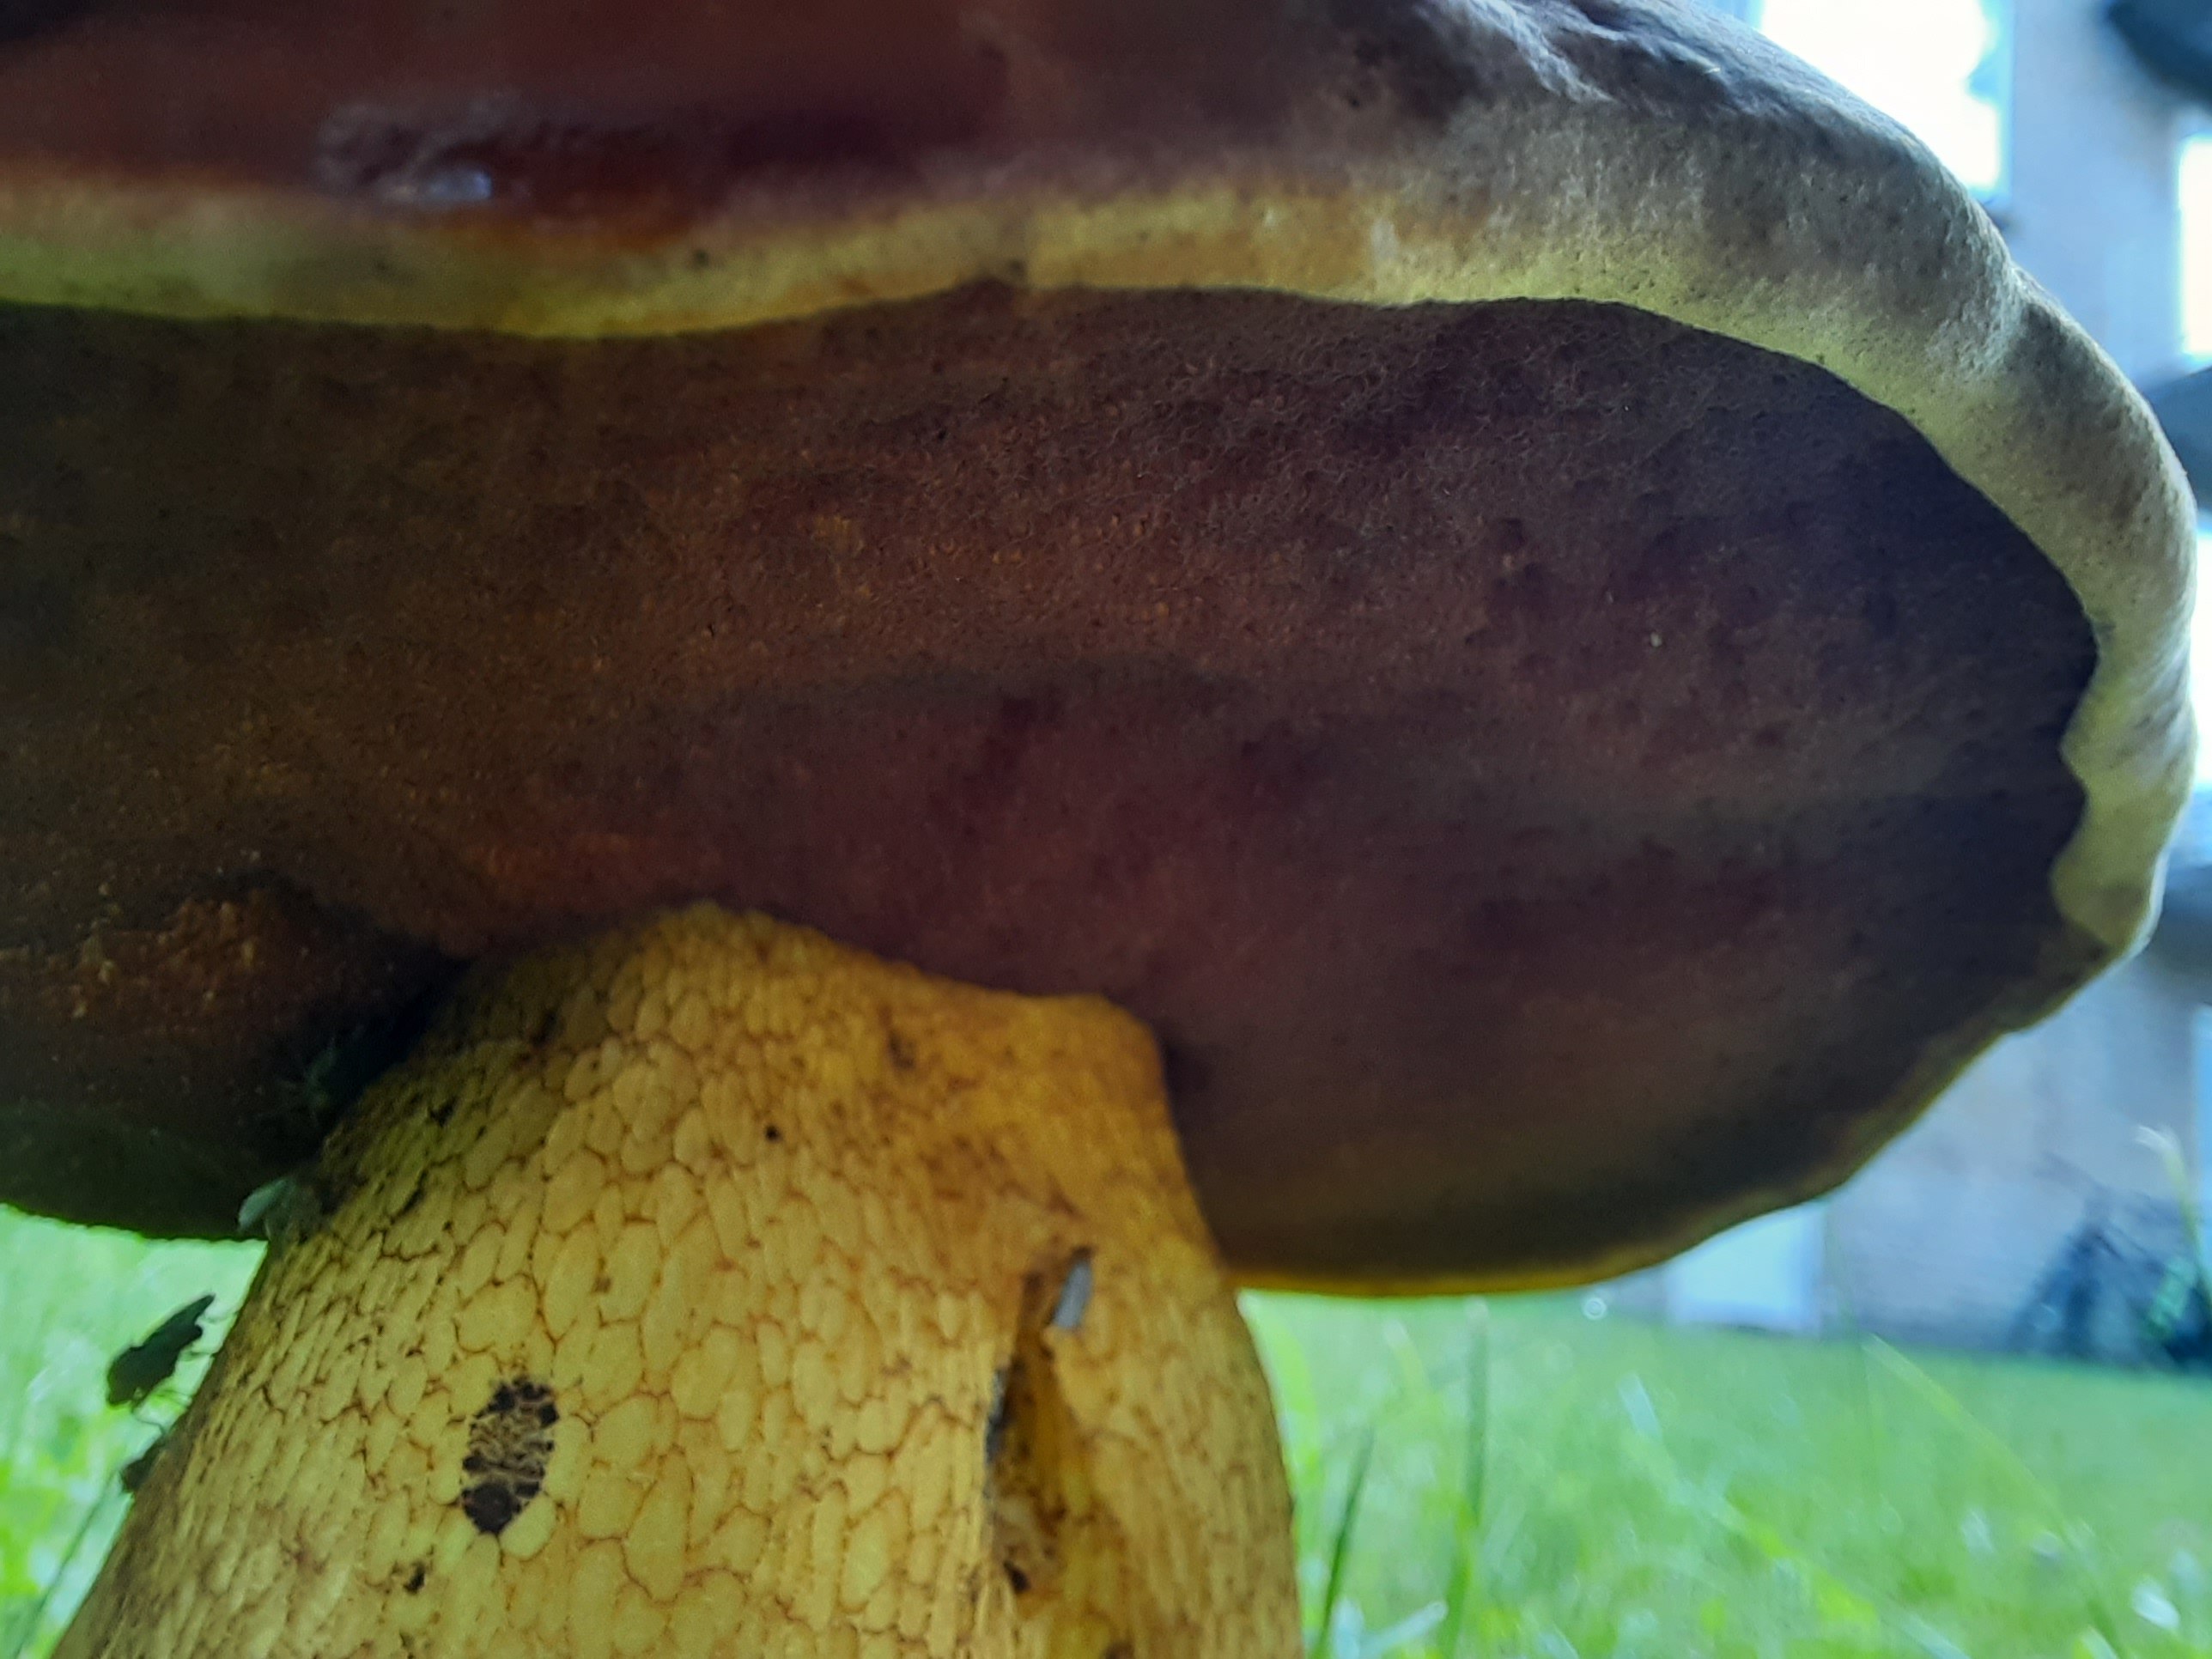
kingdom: Fungi
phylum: Basidiomycota
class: Agaricomycetes
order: Boletales
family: Boletaceae
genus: Suillellus
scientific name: Suillellus luridus
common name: netstokket indigorørhat
